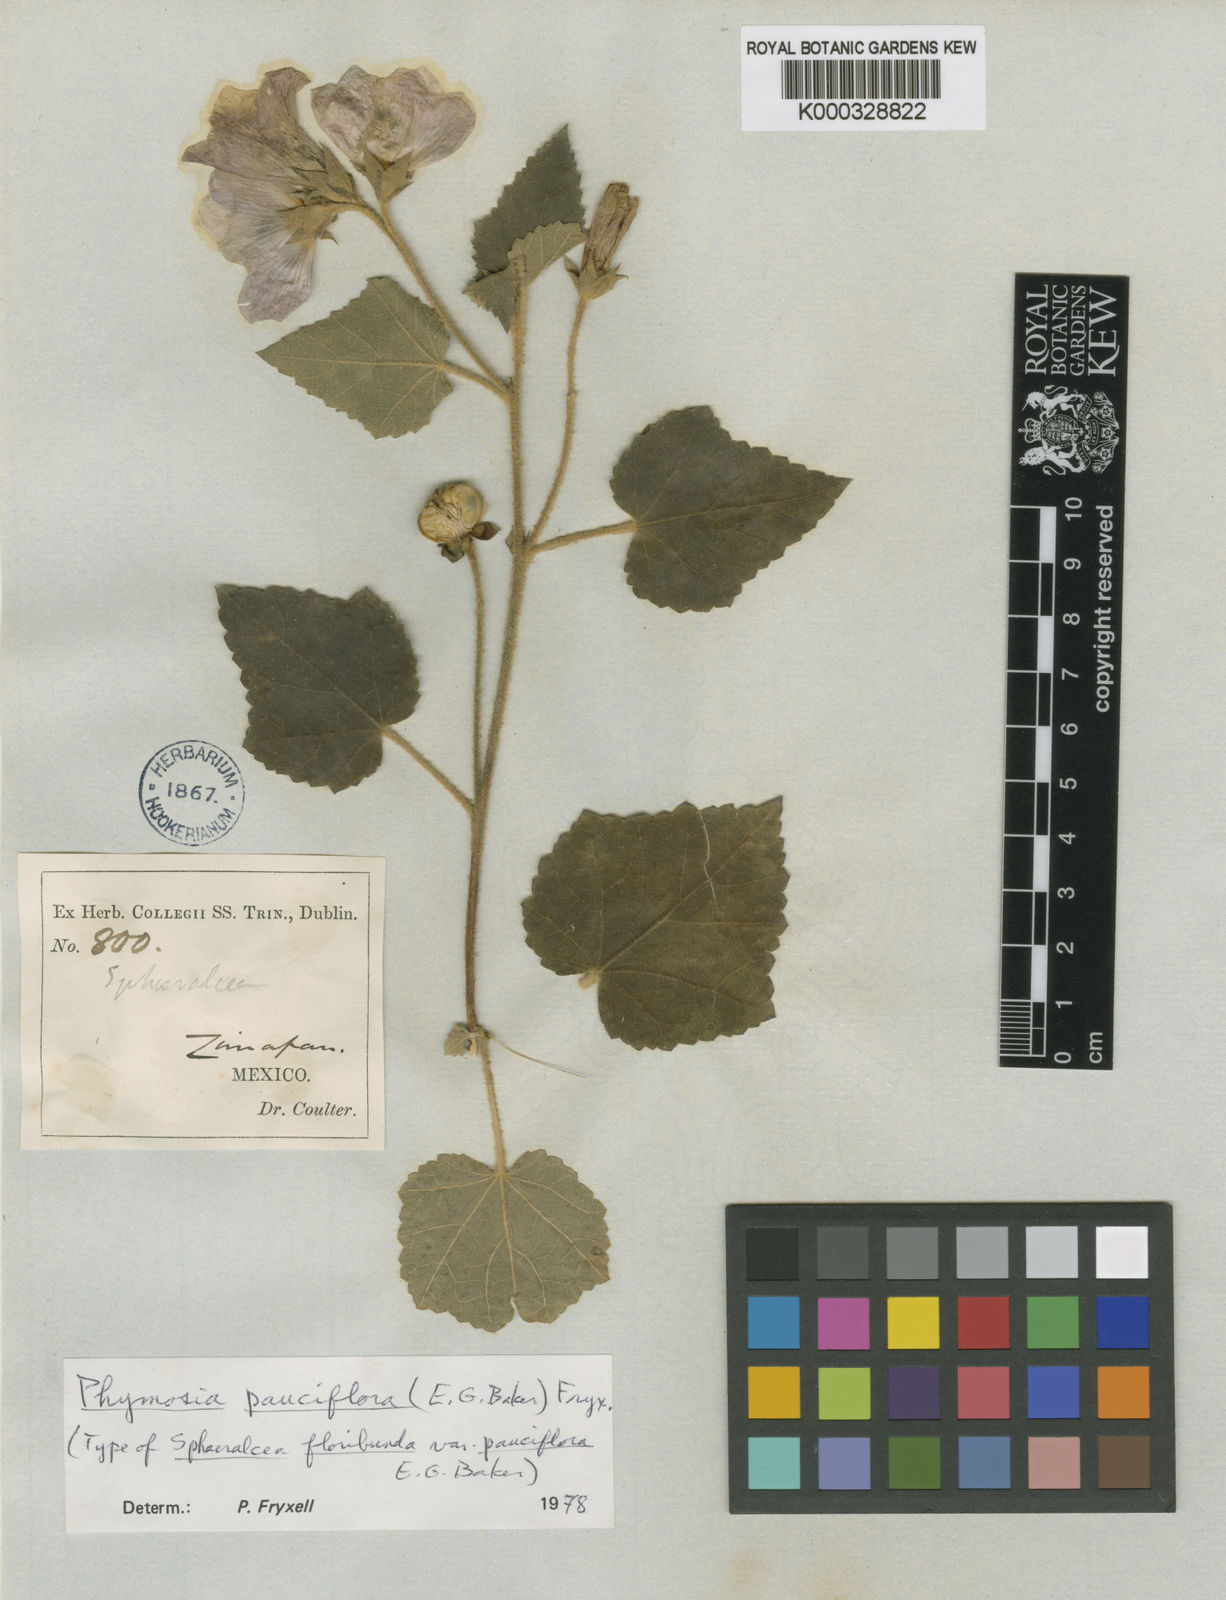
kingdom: Plantae
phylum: Tracheophyta
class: Magnoliopsida
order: Malvales
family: Malvaceae
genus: Phymosia
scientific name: Phymosia pauciflora
